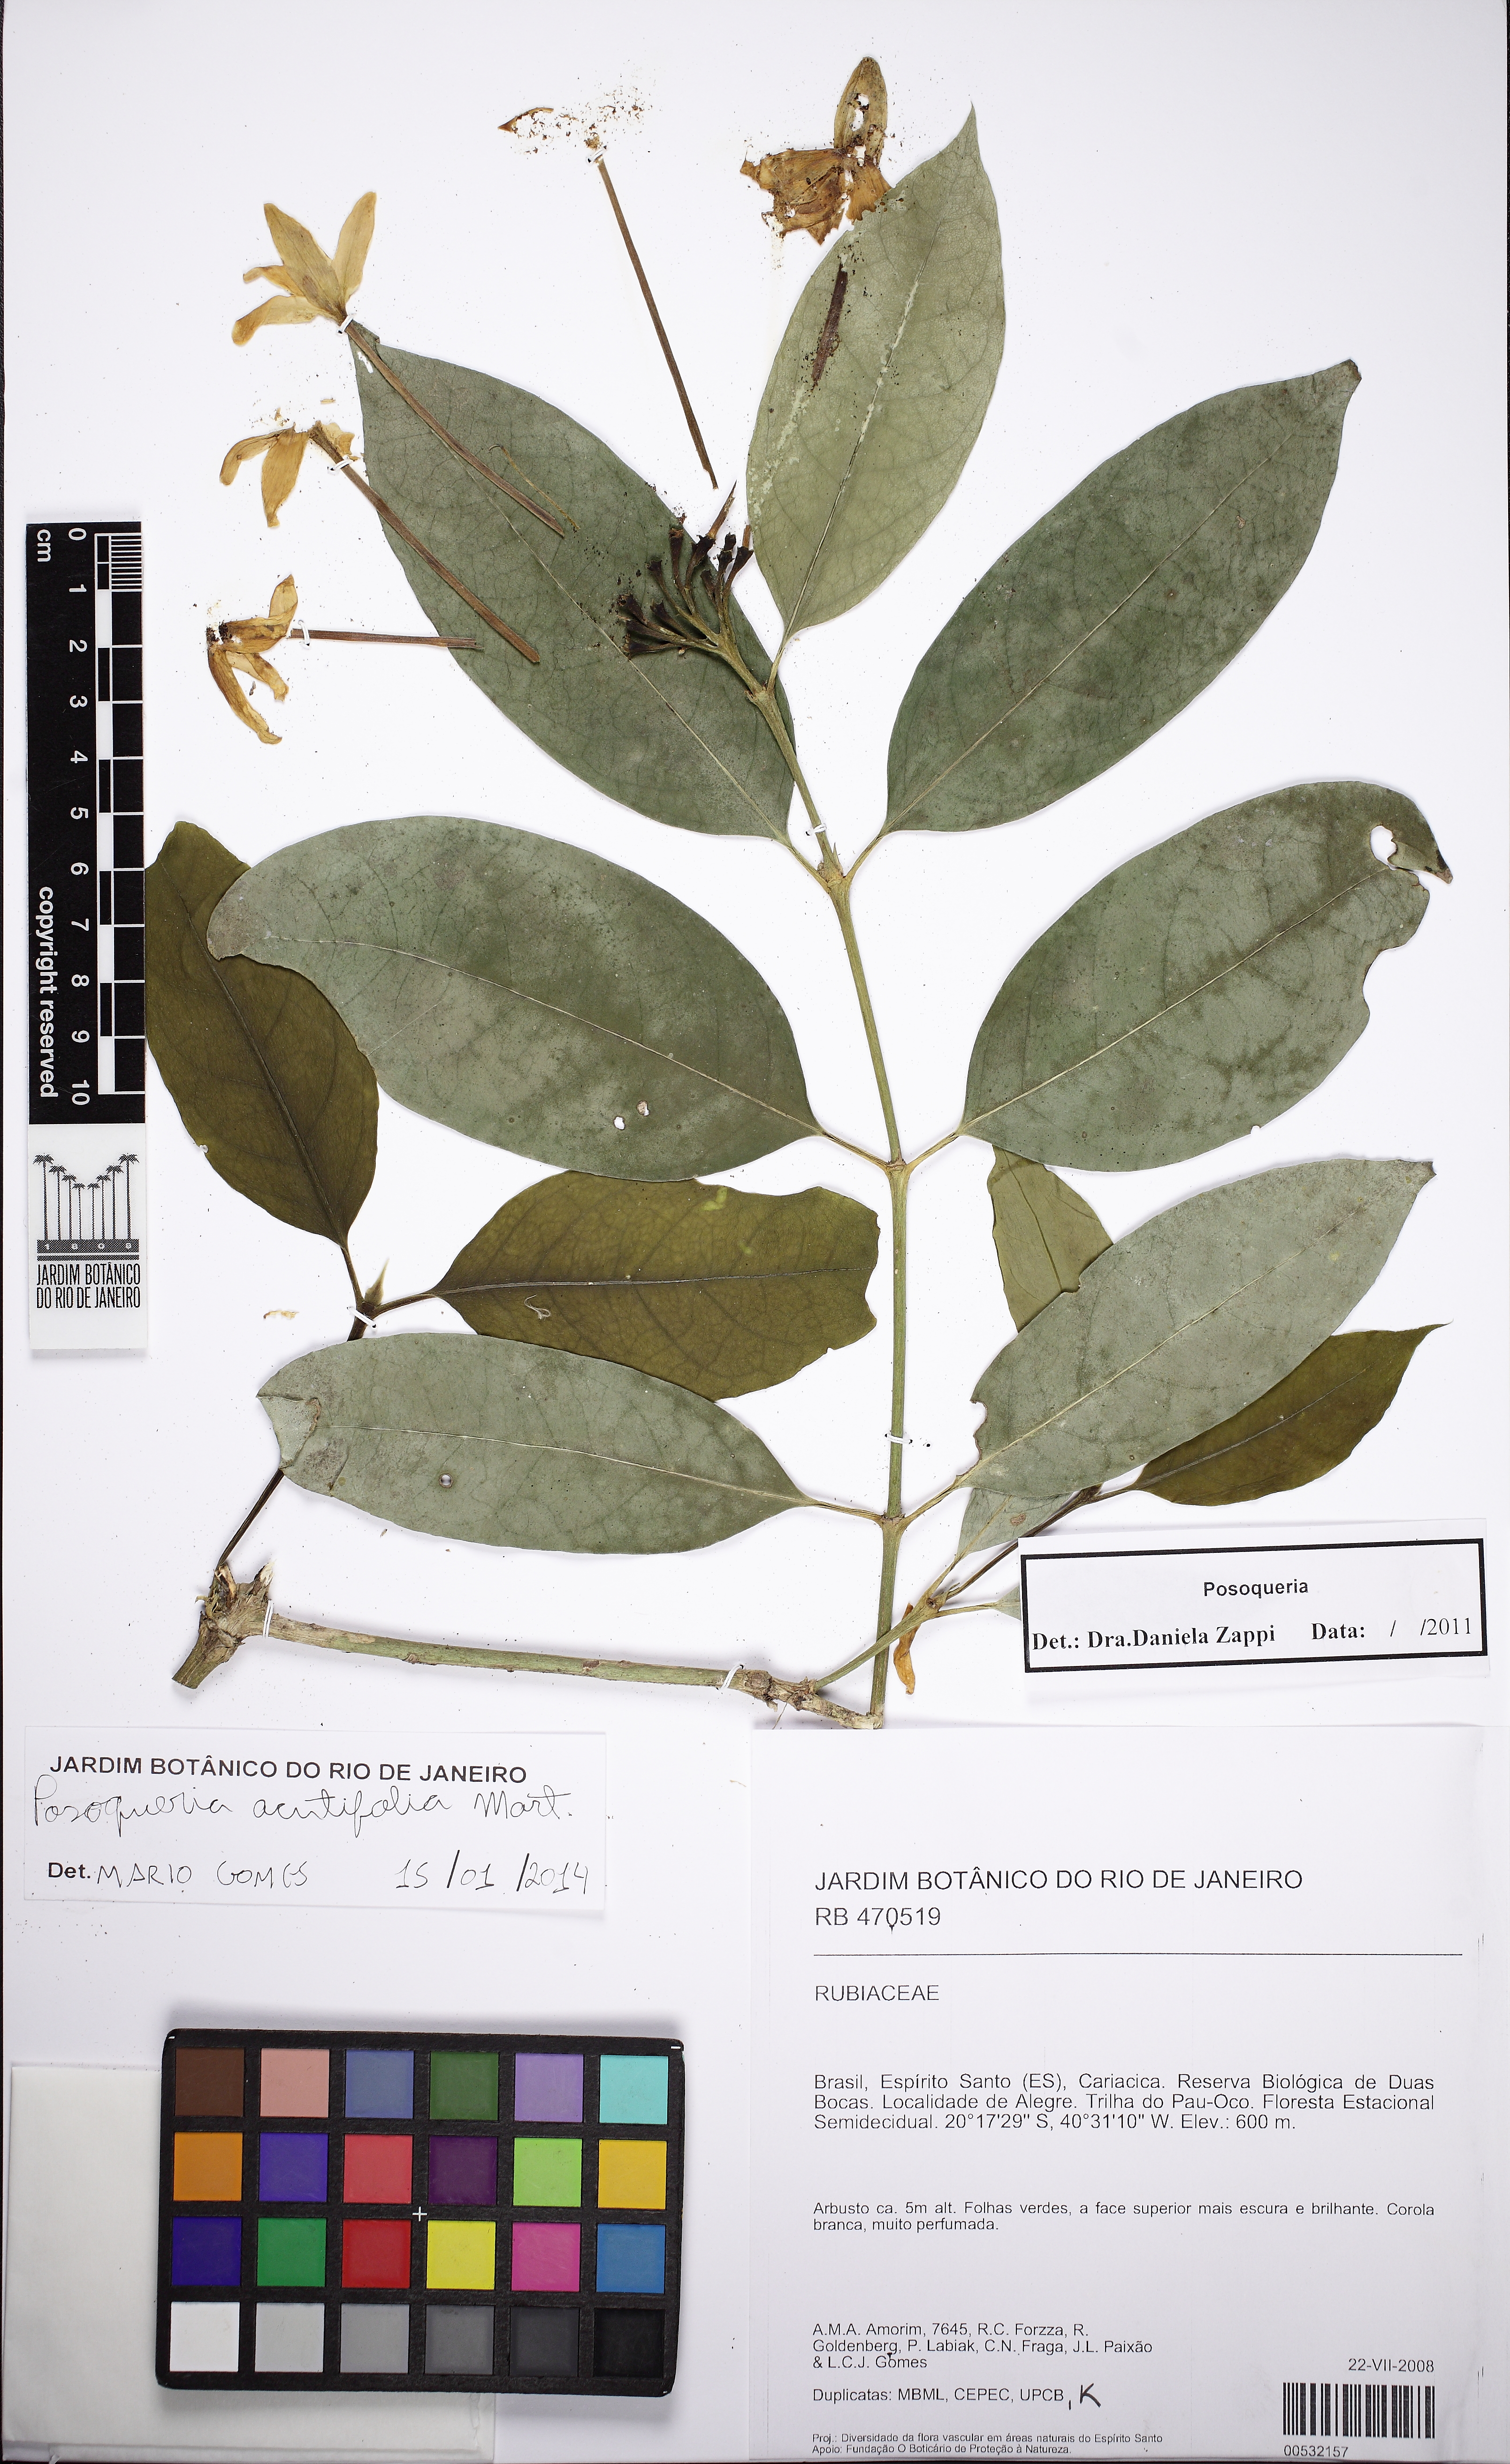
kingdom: Plantae
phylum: Tracheophyta
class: Magnoliopsida
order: Gentianales
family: Rubiaceae
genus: Posoqueria
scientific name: Posoqueria
